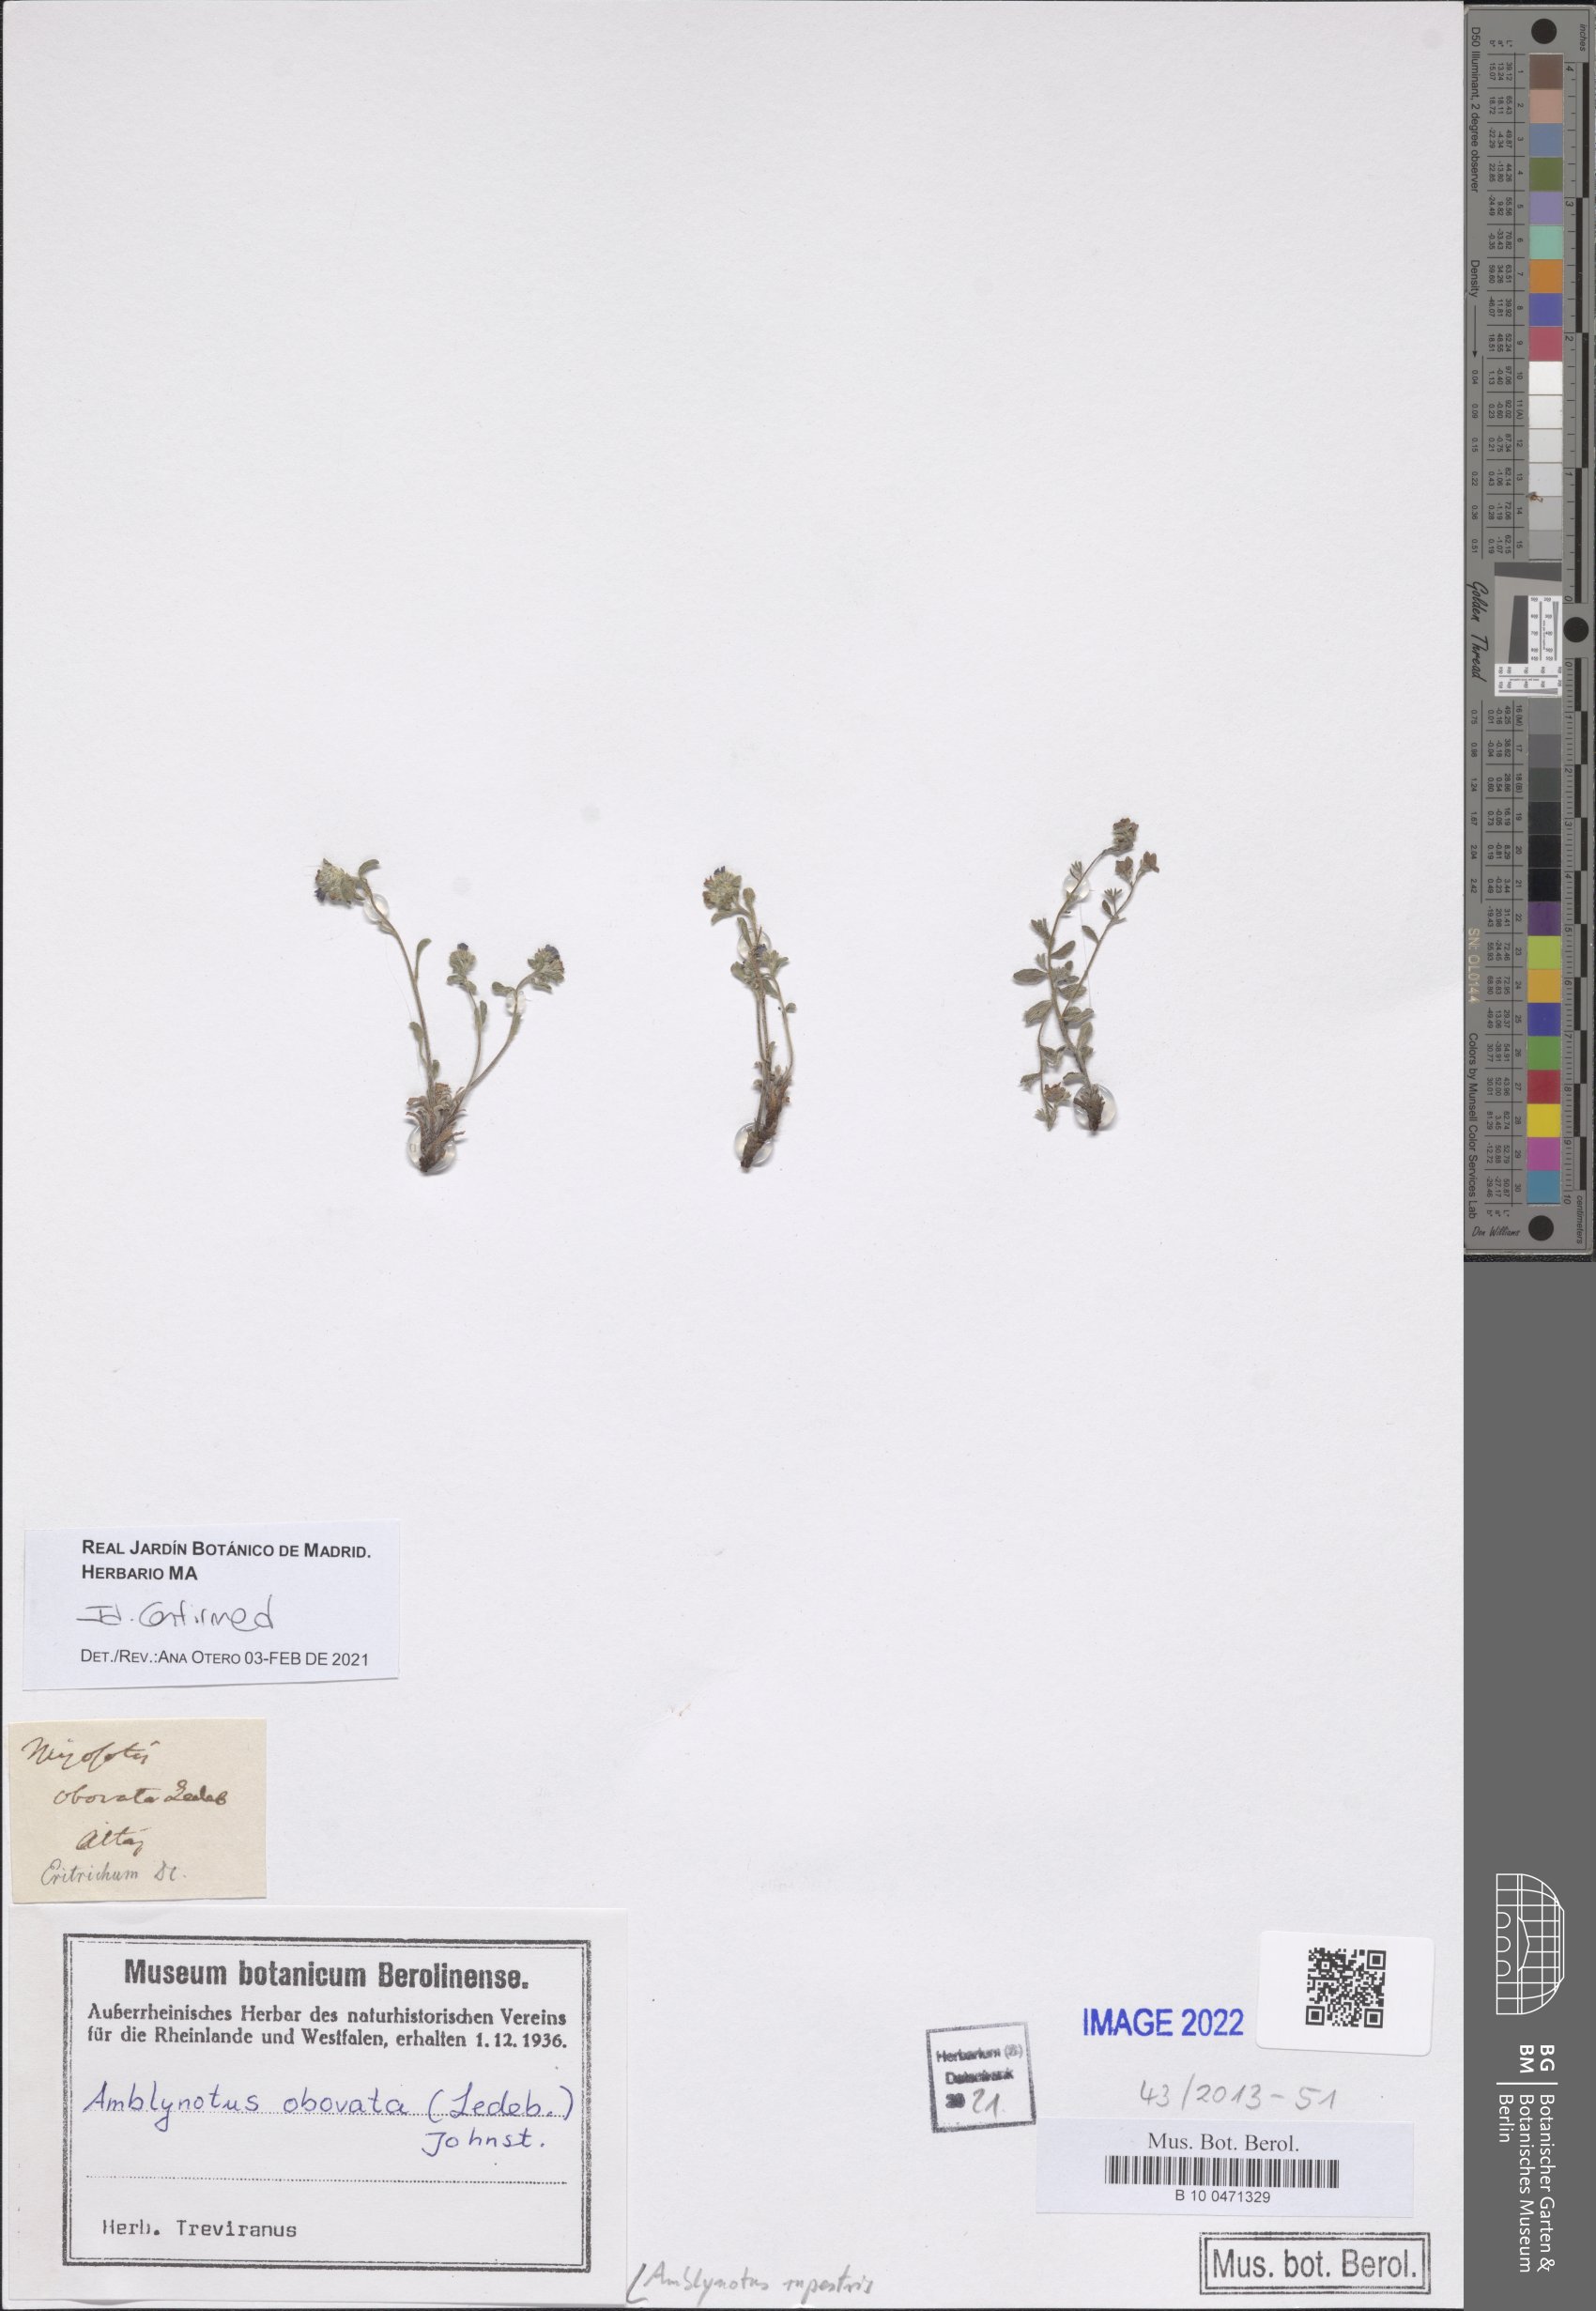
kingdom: Plantae
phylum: Tracheophyta
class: Magnoliopsida
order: Boraginales
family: Boraginaceae
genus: Eritrichium
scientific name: Eritrichium rupestre
